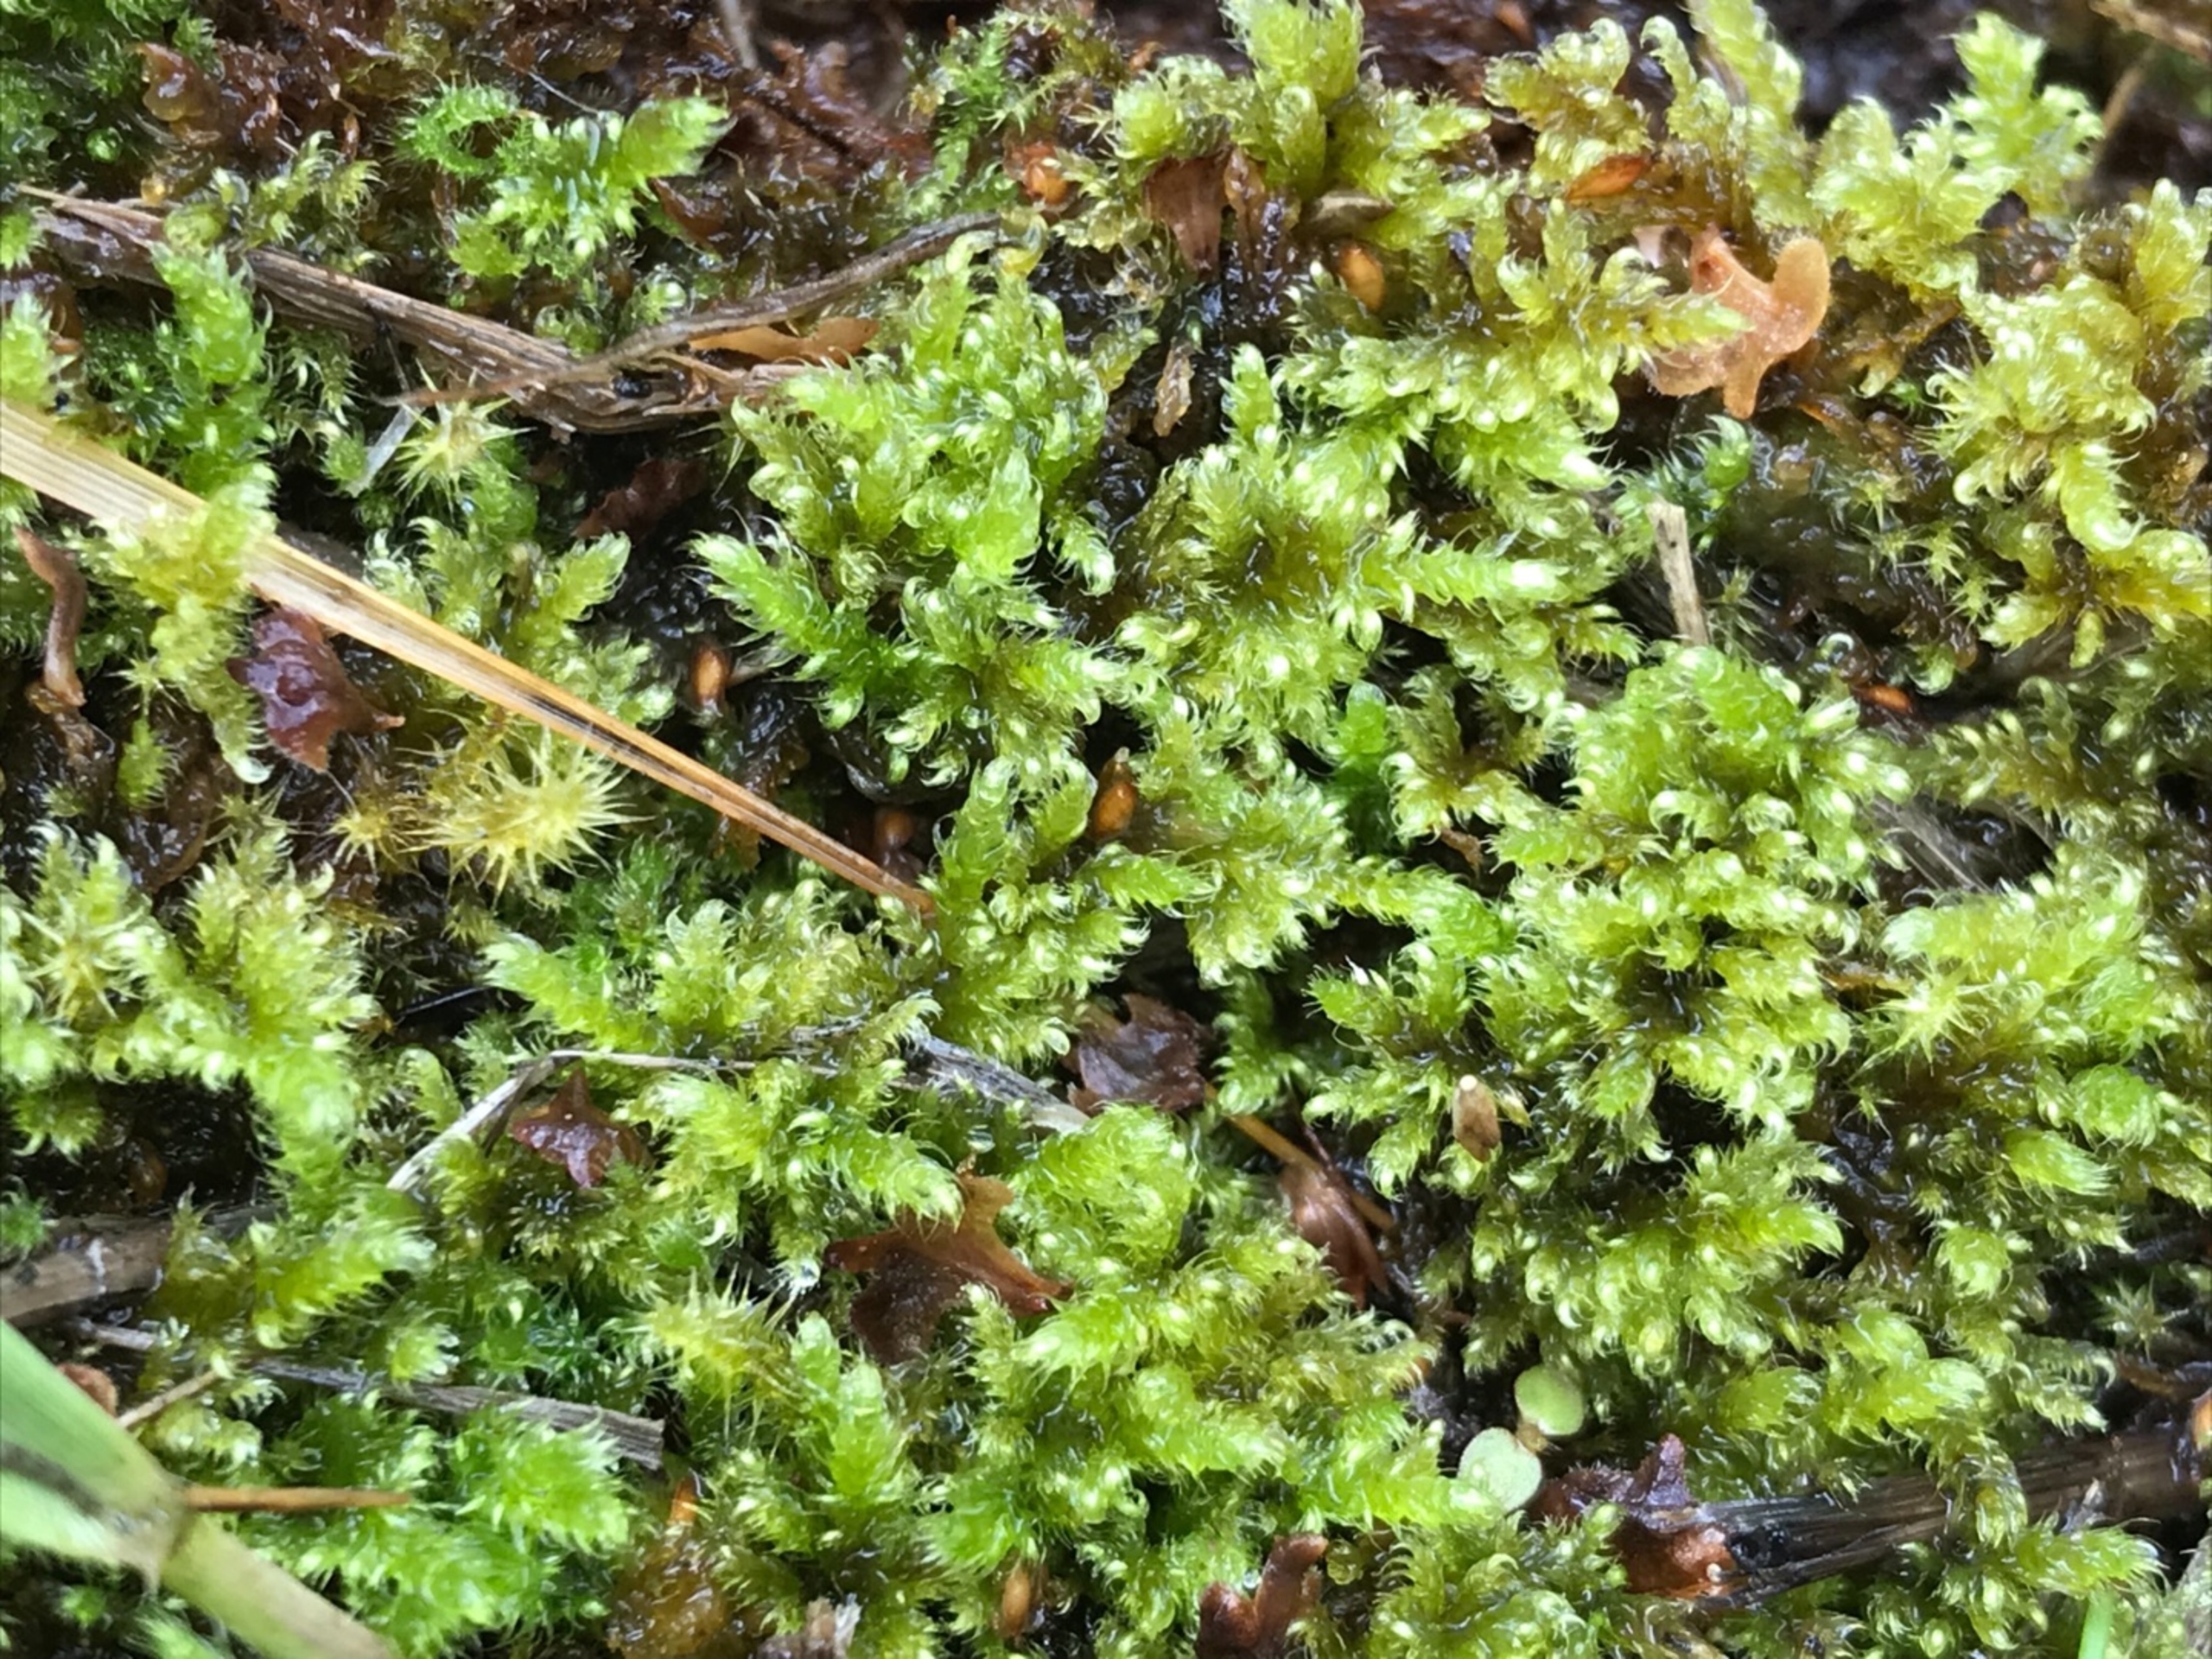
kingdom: Plantae
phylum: Bryophyta
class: Bryopsida
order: Hypnales
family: Myuriaceae
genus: Ctenidium
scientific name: Ctenidium molluscum
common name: Kalk-blødmos
